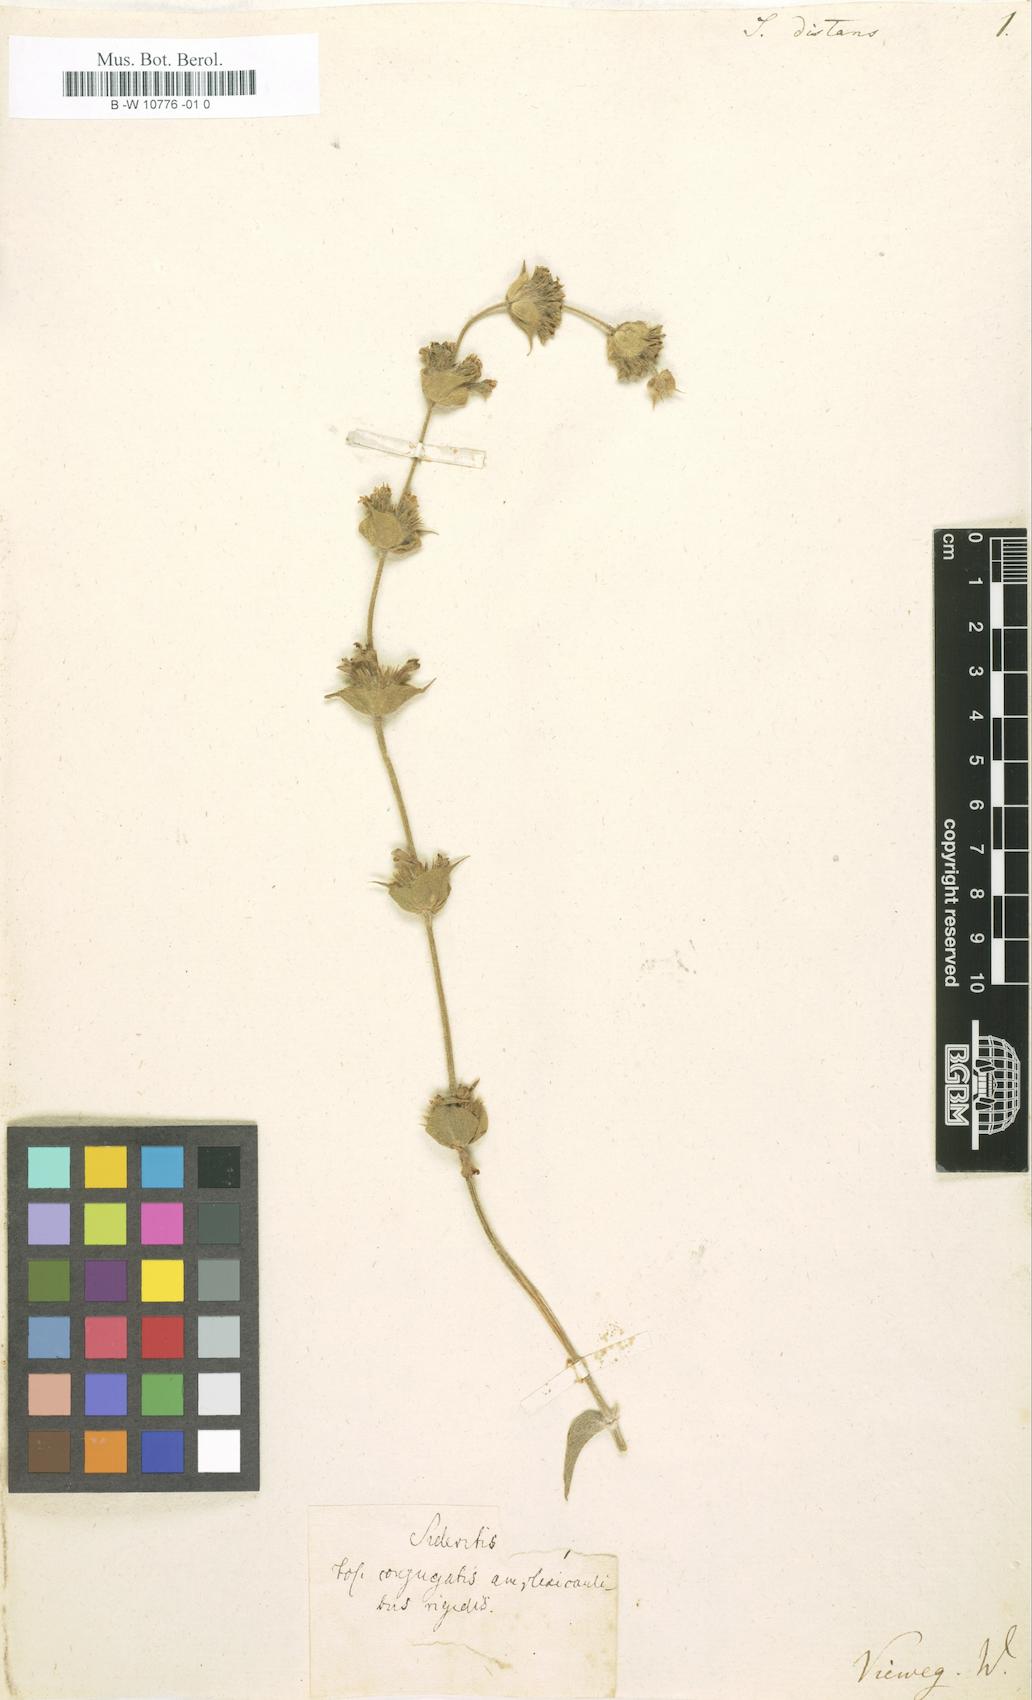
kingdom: Plantae
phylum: Tracheophyta
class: Magnoliopsida
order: Lamiales
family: Lamiaceae
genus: Sideritis
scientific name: Sideritis taurica
